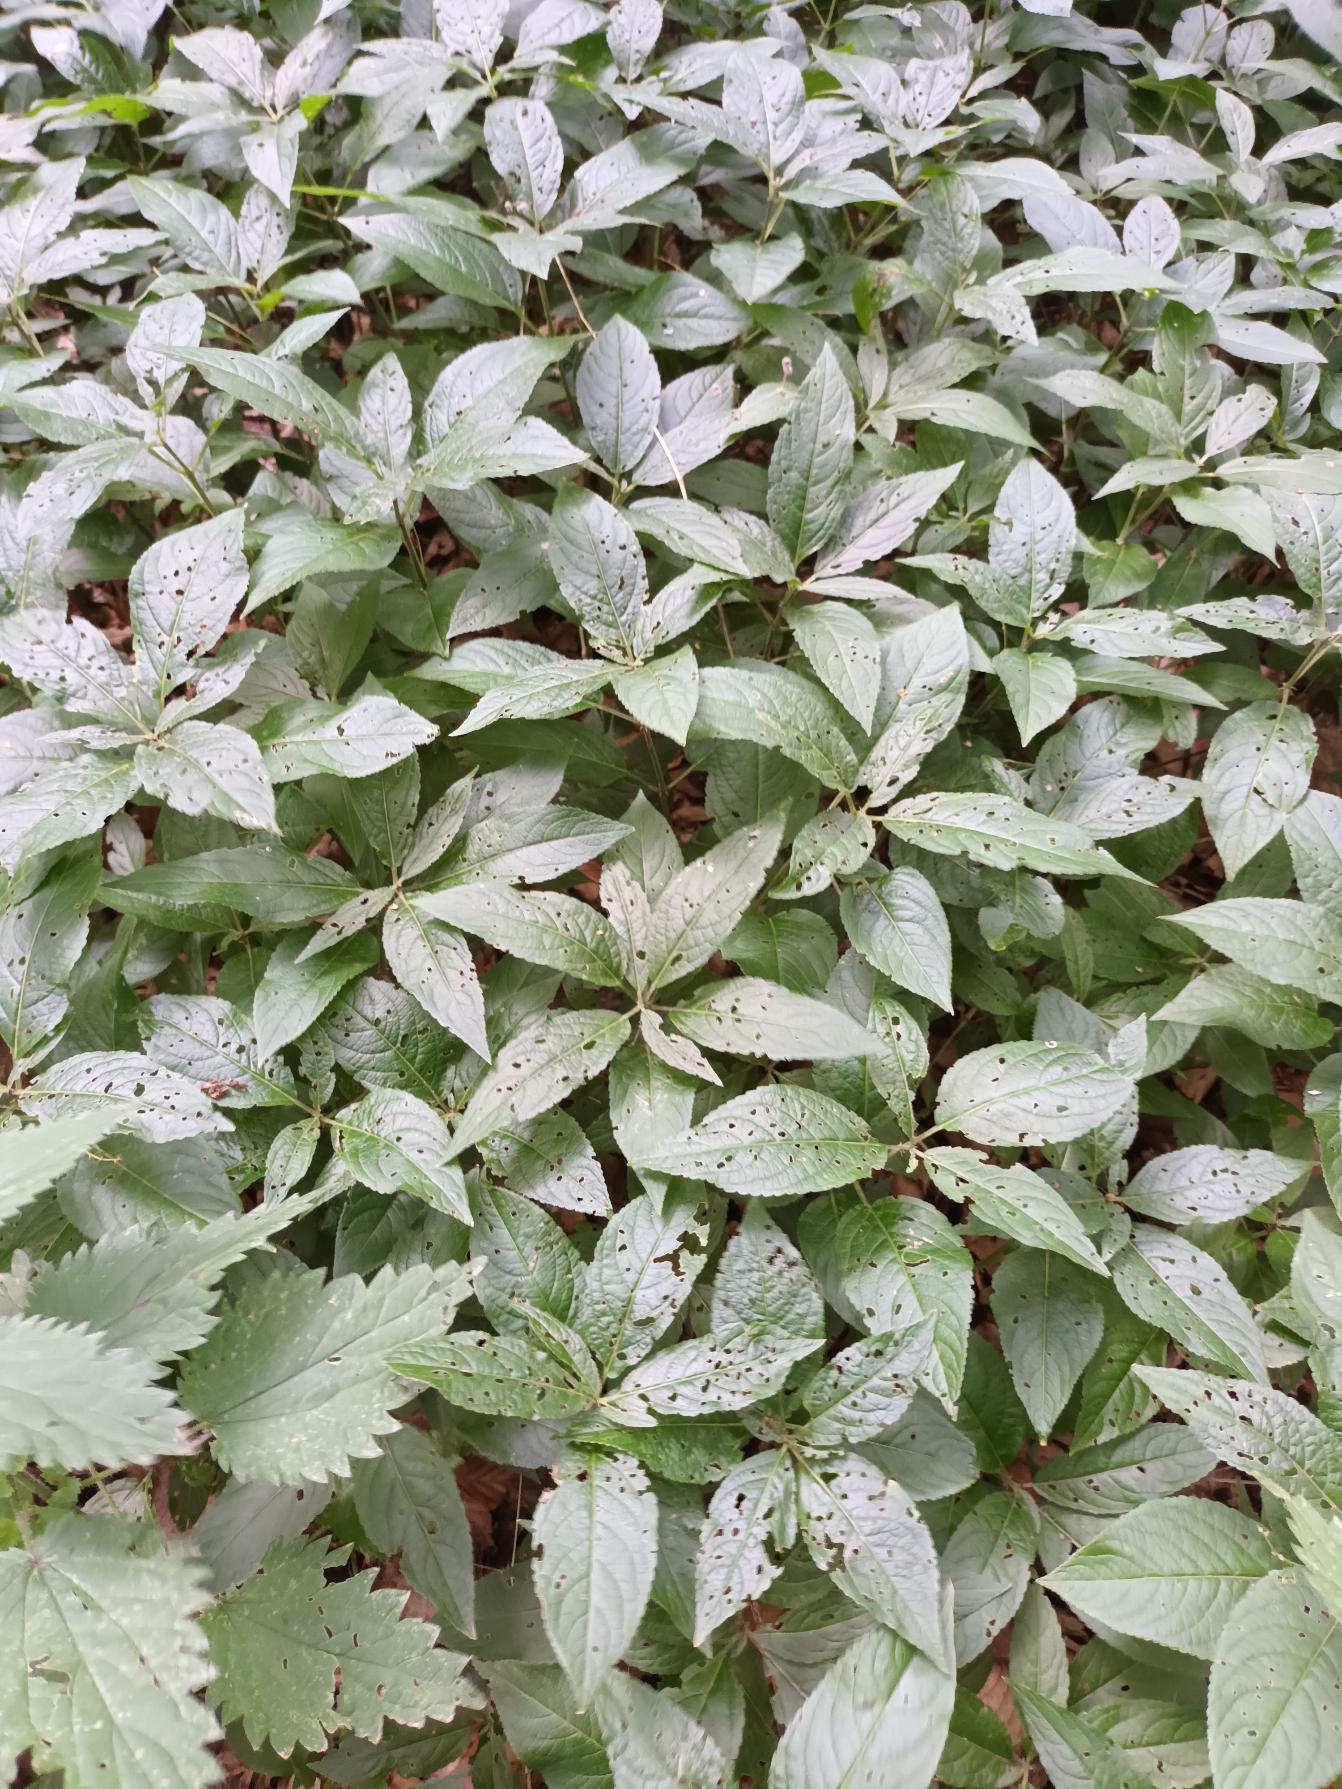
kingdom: Plantae
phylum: Tracheophyta
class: Magnoliopsida
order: Malpighiales
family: Euphorbiaceae
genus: Mercurialis
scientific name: Mercurialis perennis
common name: Almindelig bingelurt
